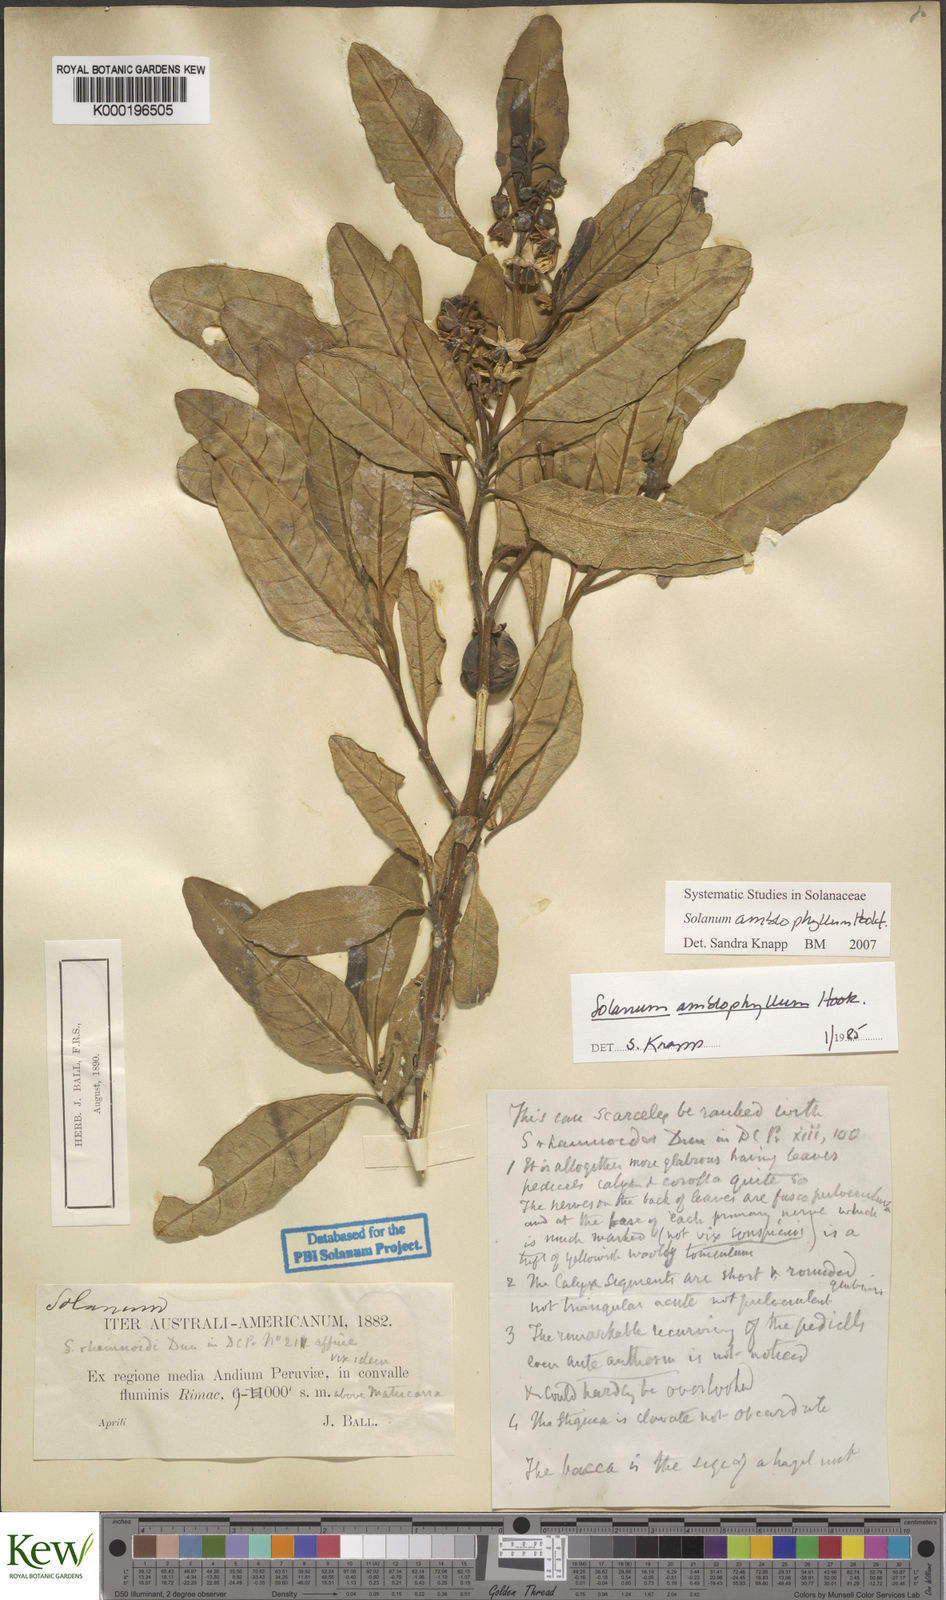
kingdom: Plantae
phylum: Tracheophyta
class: Magnoliopsida
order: Solanales
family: Solanaceae
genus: Solanum
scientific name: Solanum amblophyllum
